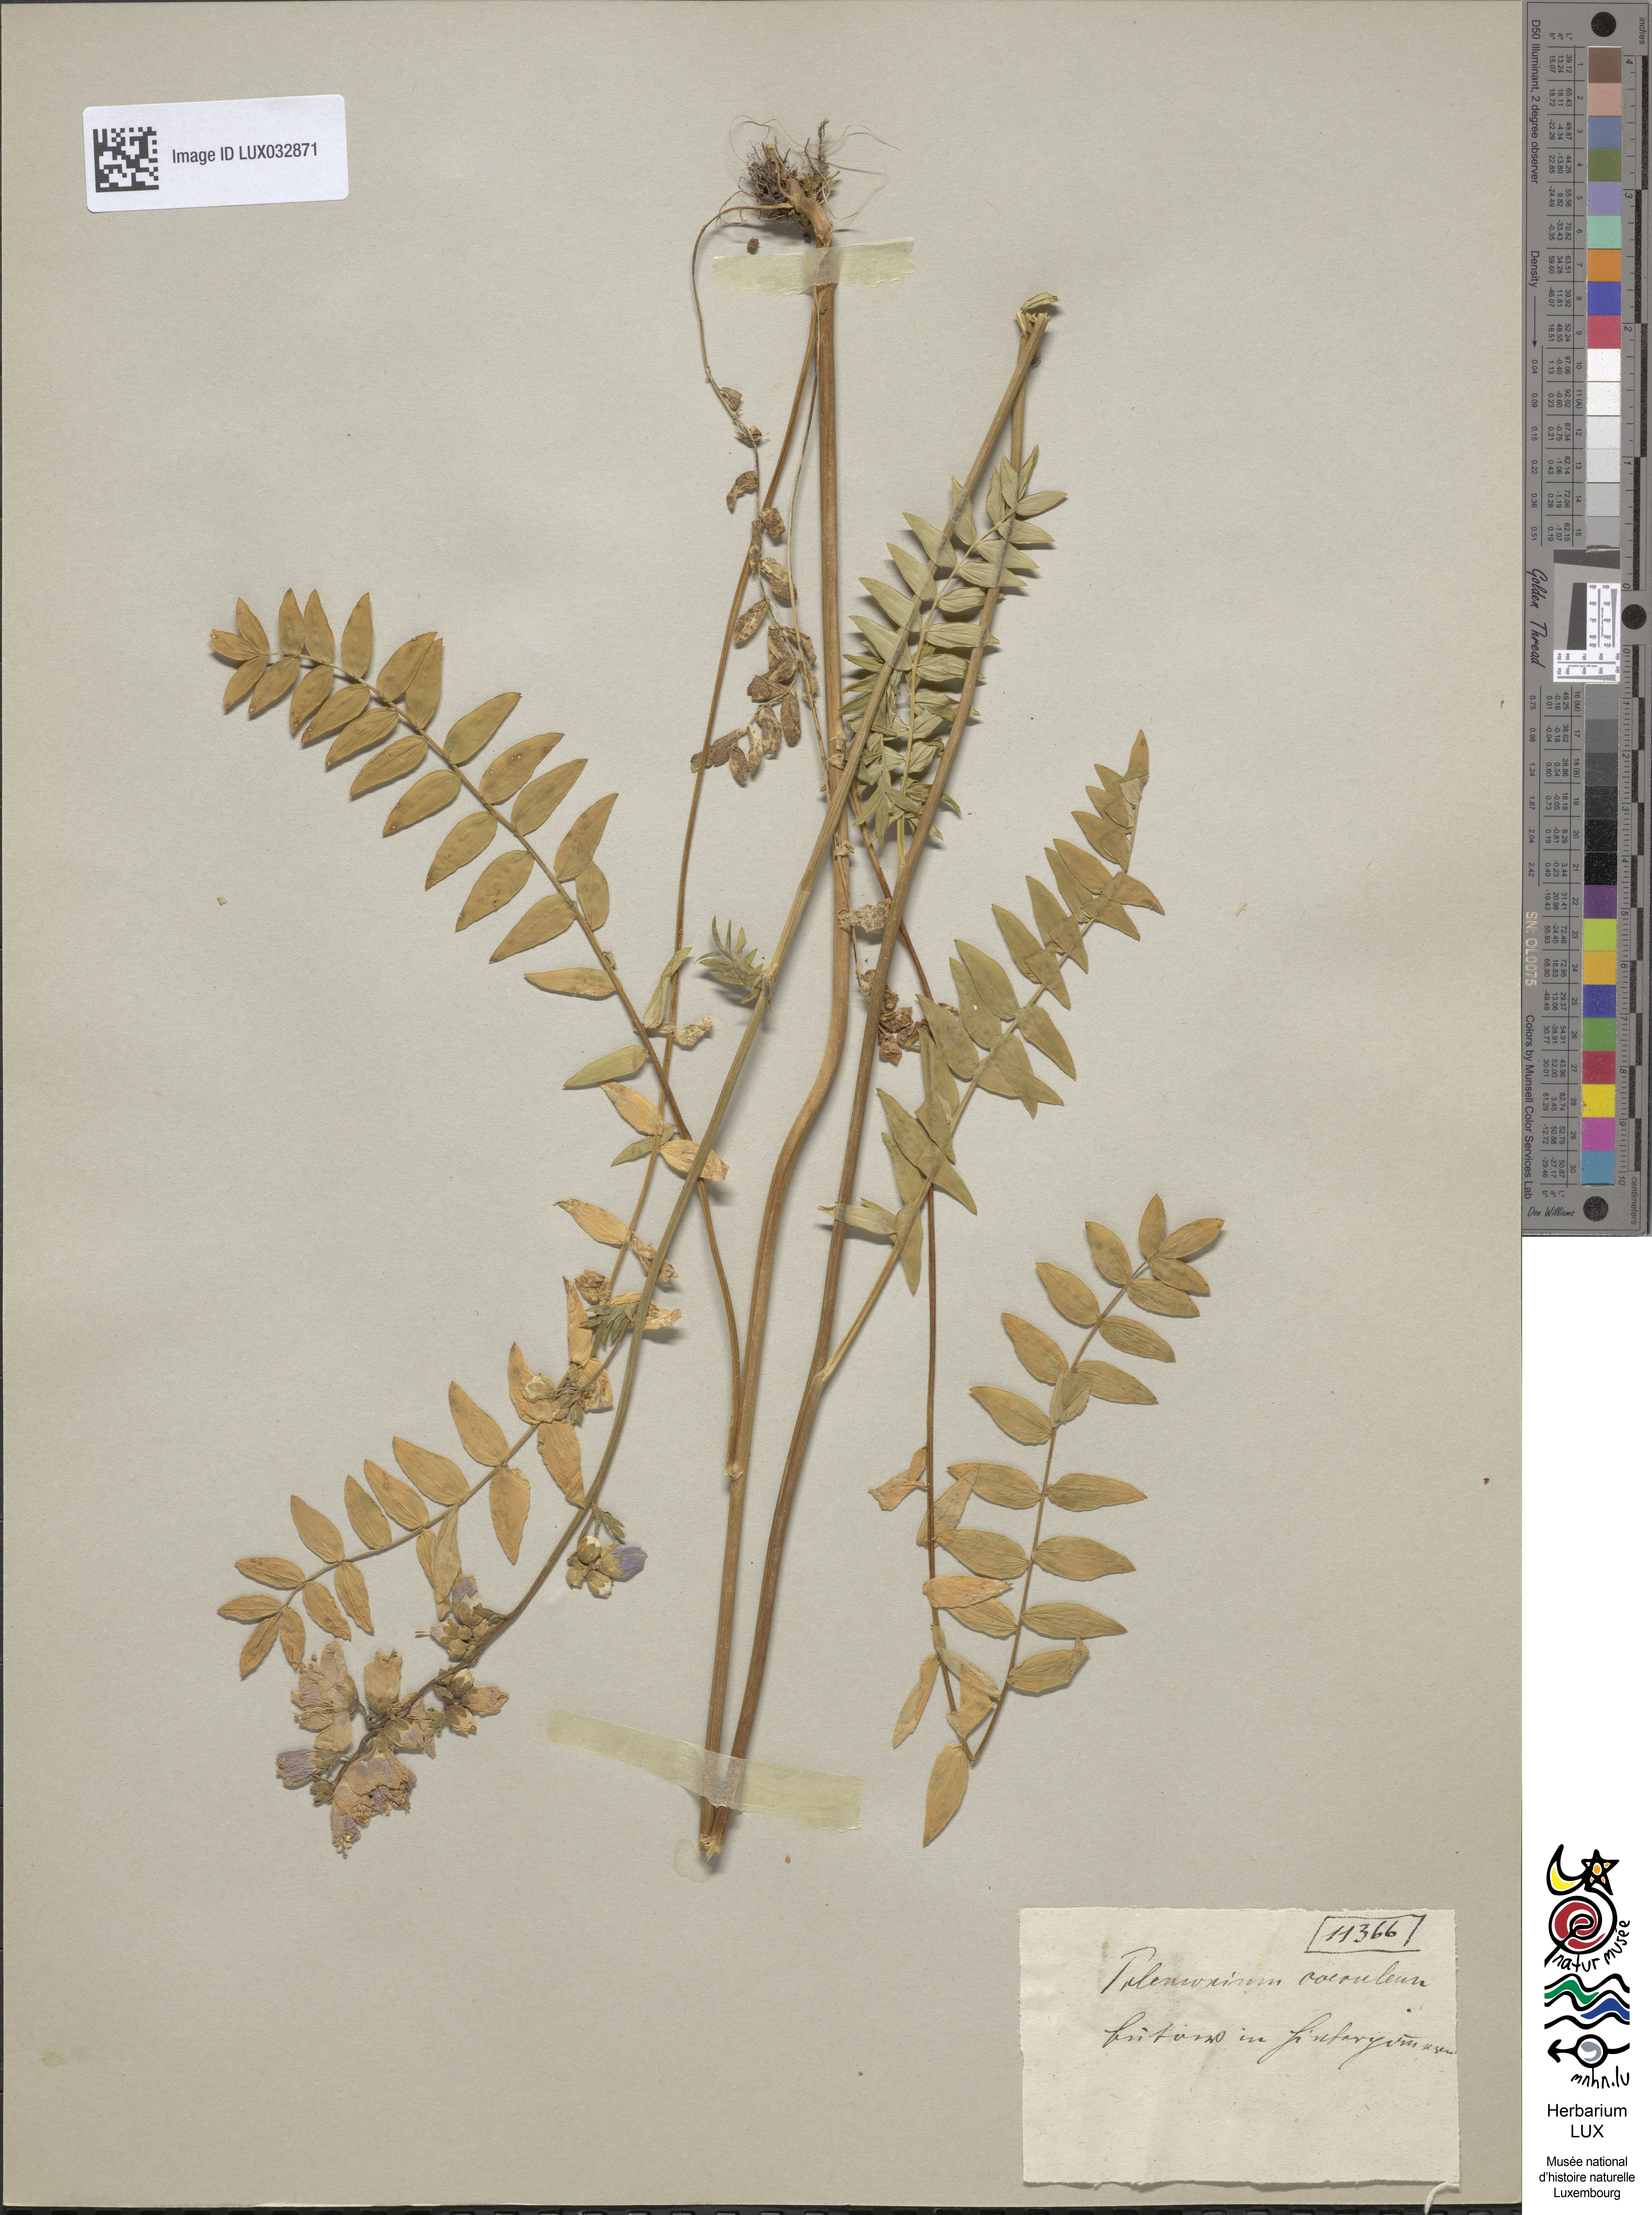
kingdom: Plantae
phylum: Tracheophyta
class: Magnoliopsida
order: Ericales
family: Polemoniaceae
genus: Polemonium
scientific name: Polemonium caeruleum
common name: Jacob's-ladder
